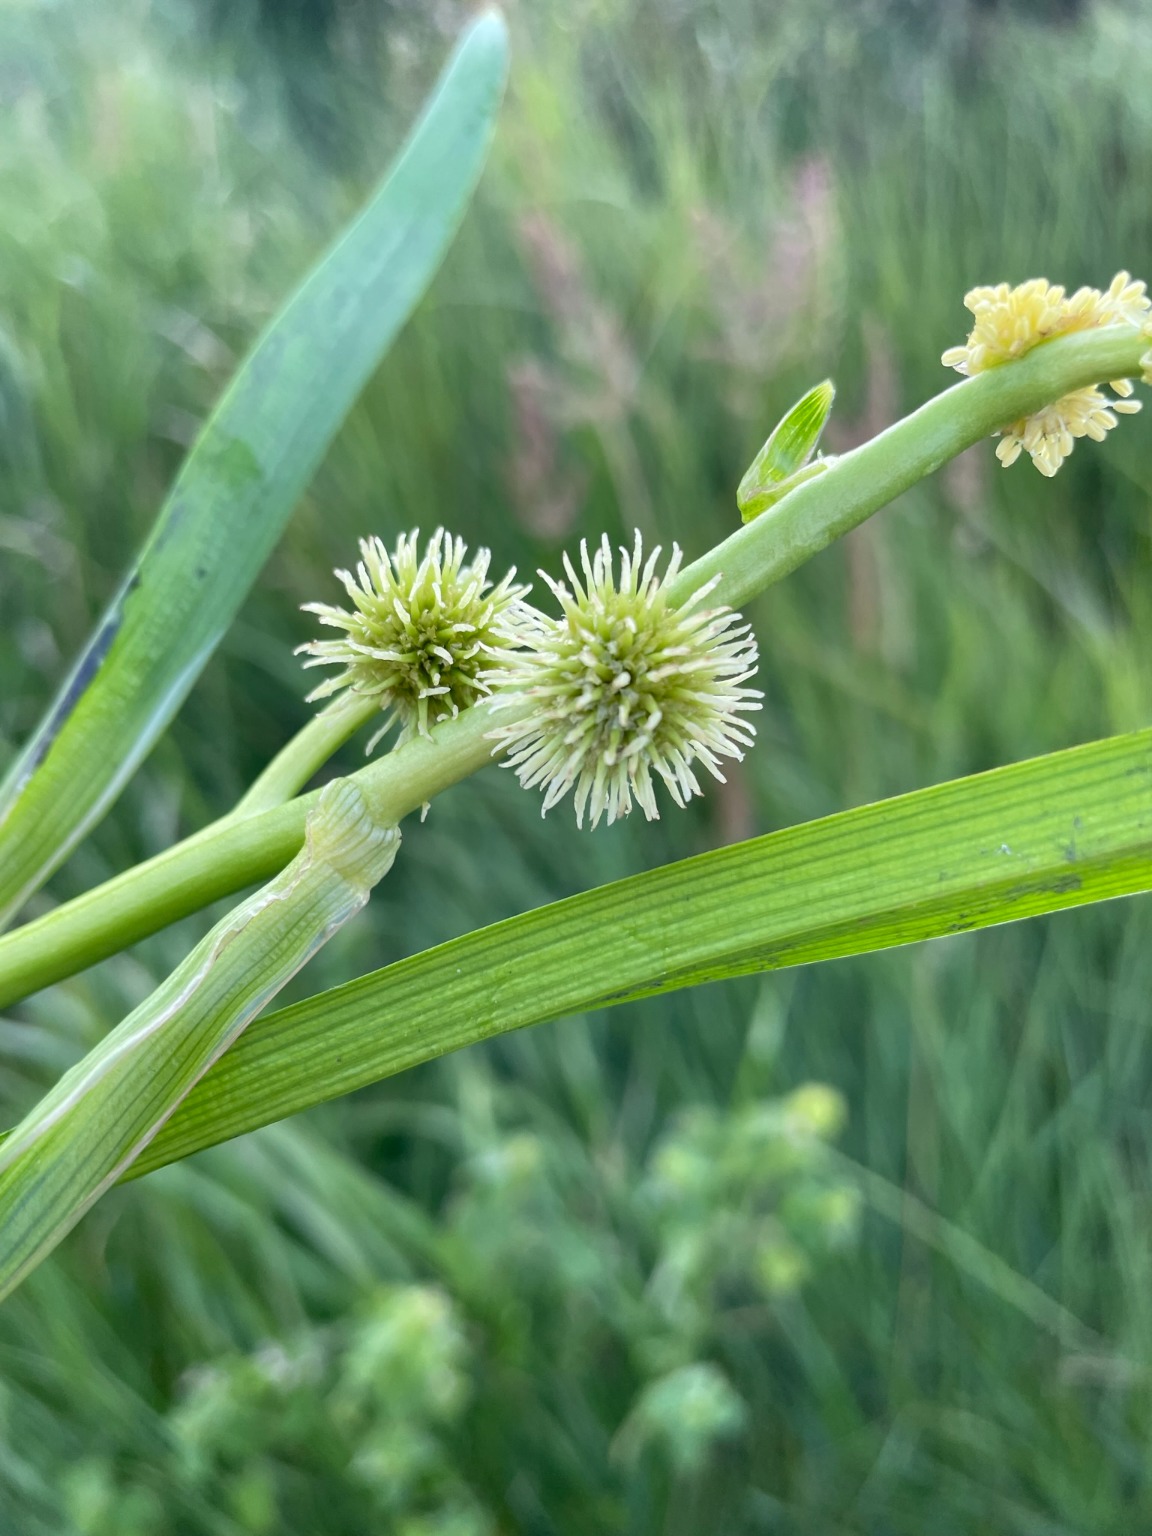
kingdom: Plantae
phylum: Tracheophyta
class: Liliopsida
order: Poales
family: Typhaceae
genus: Sparganium
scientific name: Sparganium emersum
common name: Enkelt pindsvineknop
